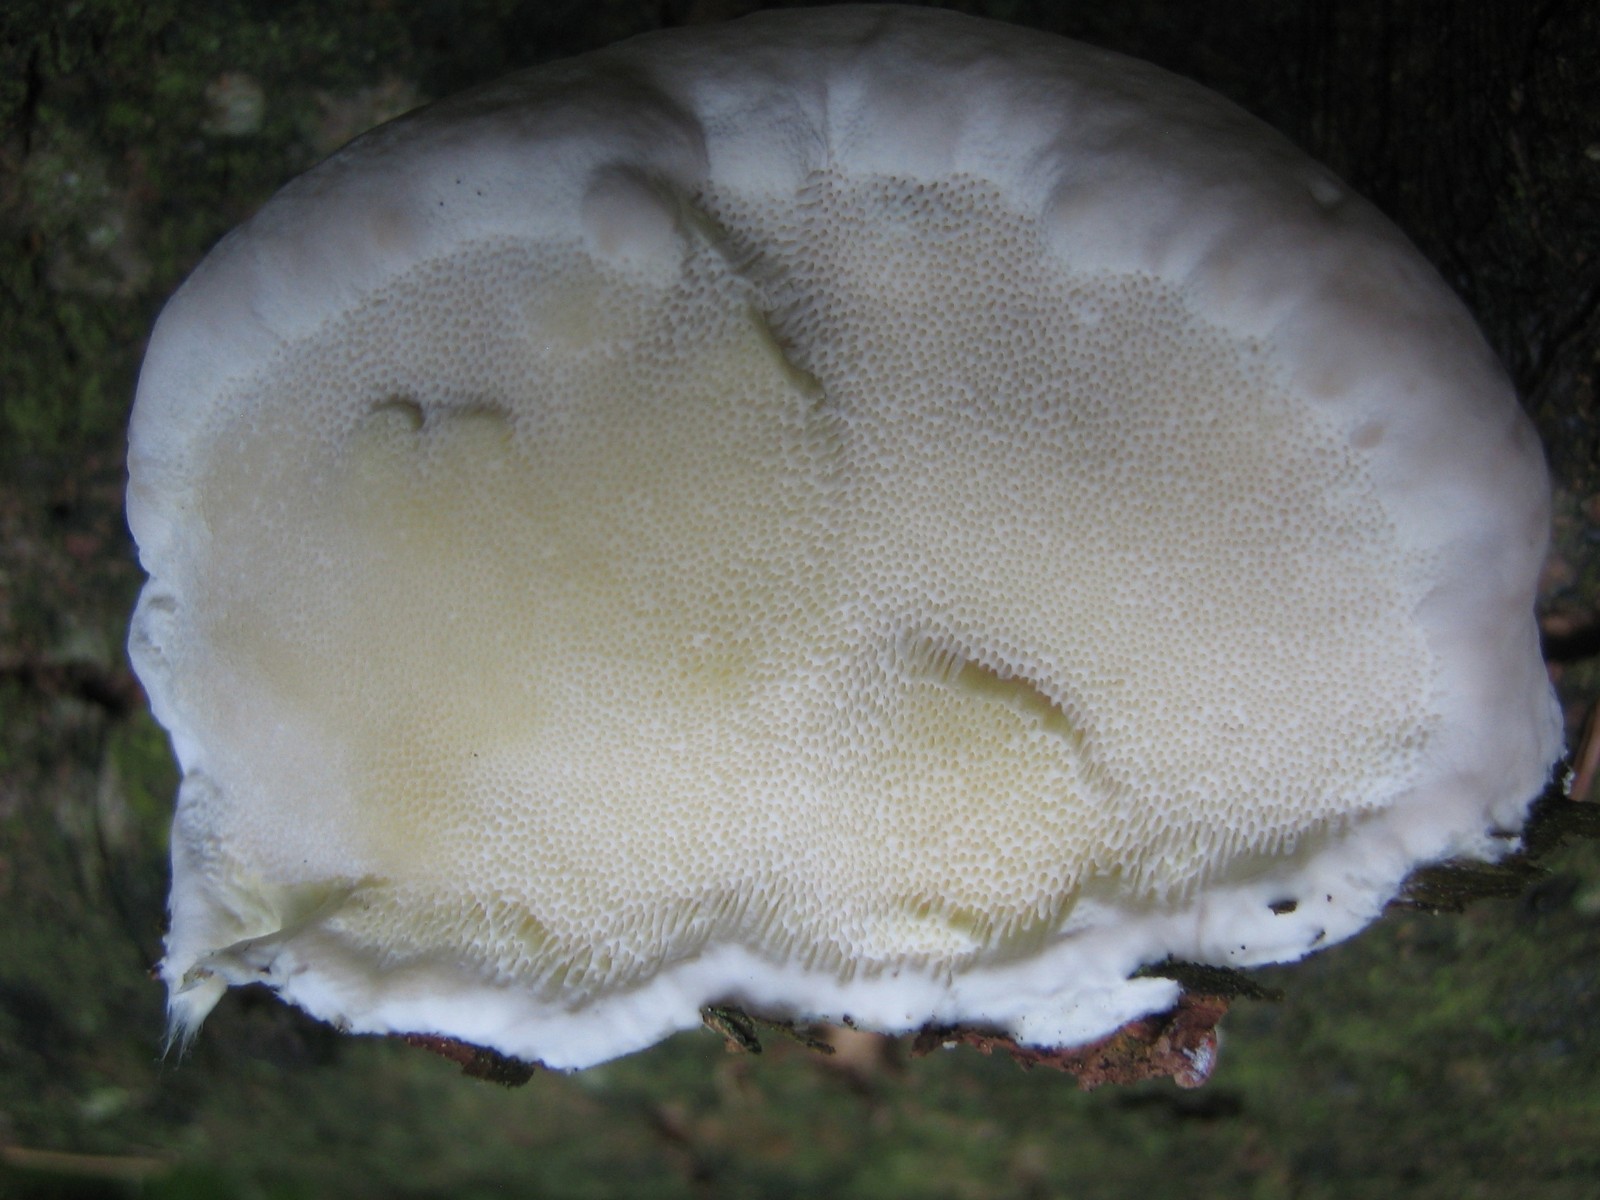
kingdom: Fungi
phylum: Basidiomycota
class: Agaricomycetes
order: Polyporales
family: Fomitopsidaceae
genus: Fomitopsis
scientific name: Fomitopsis pinicola
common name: randbæltet hovporesvamp
